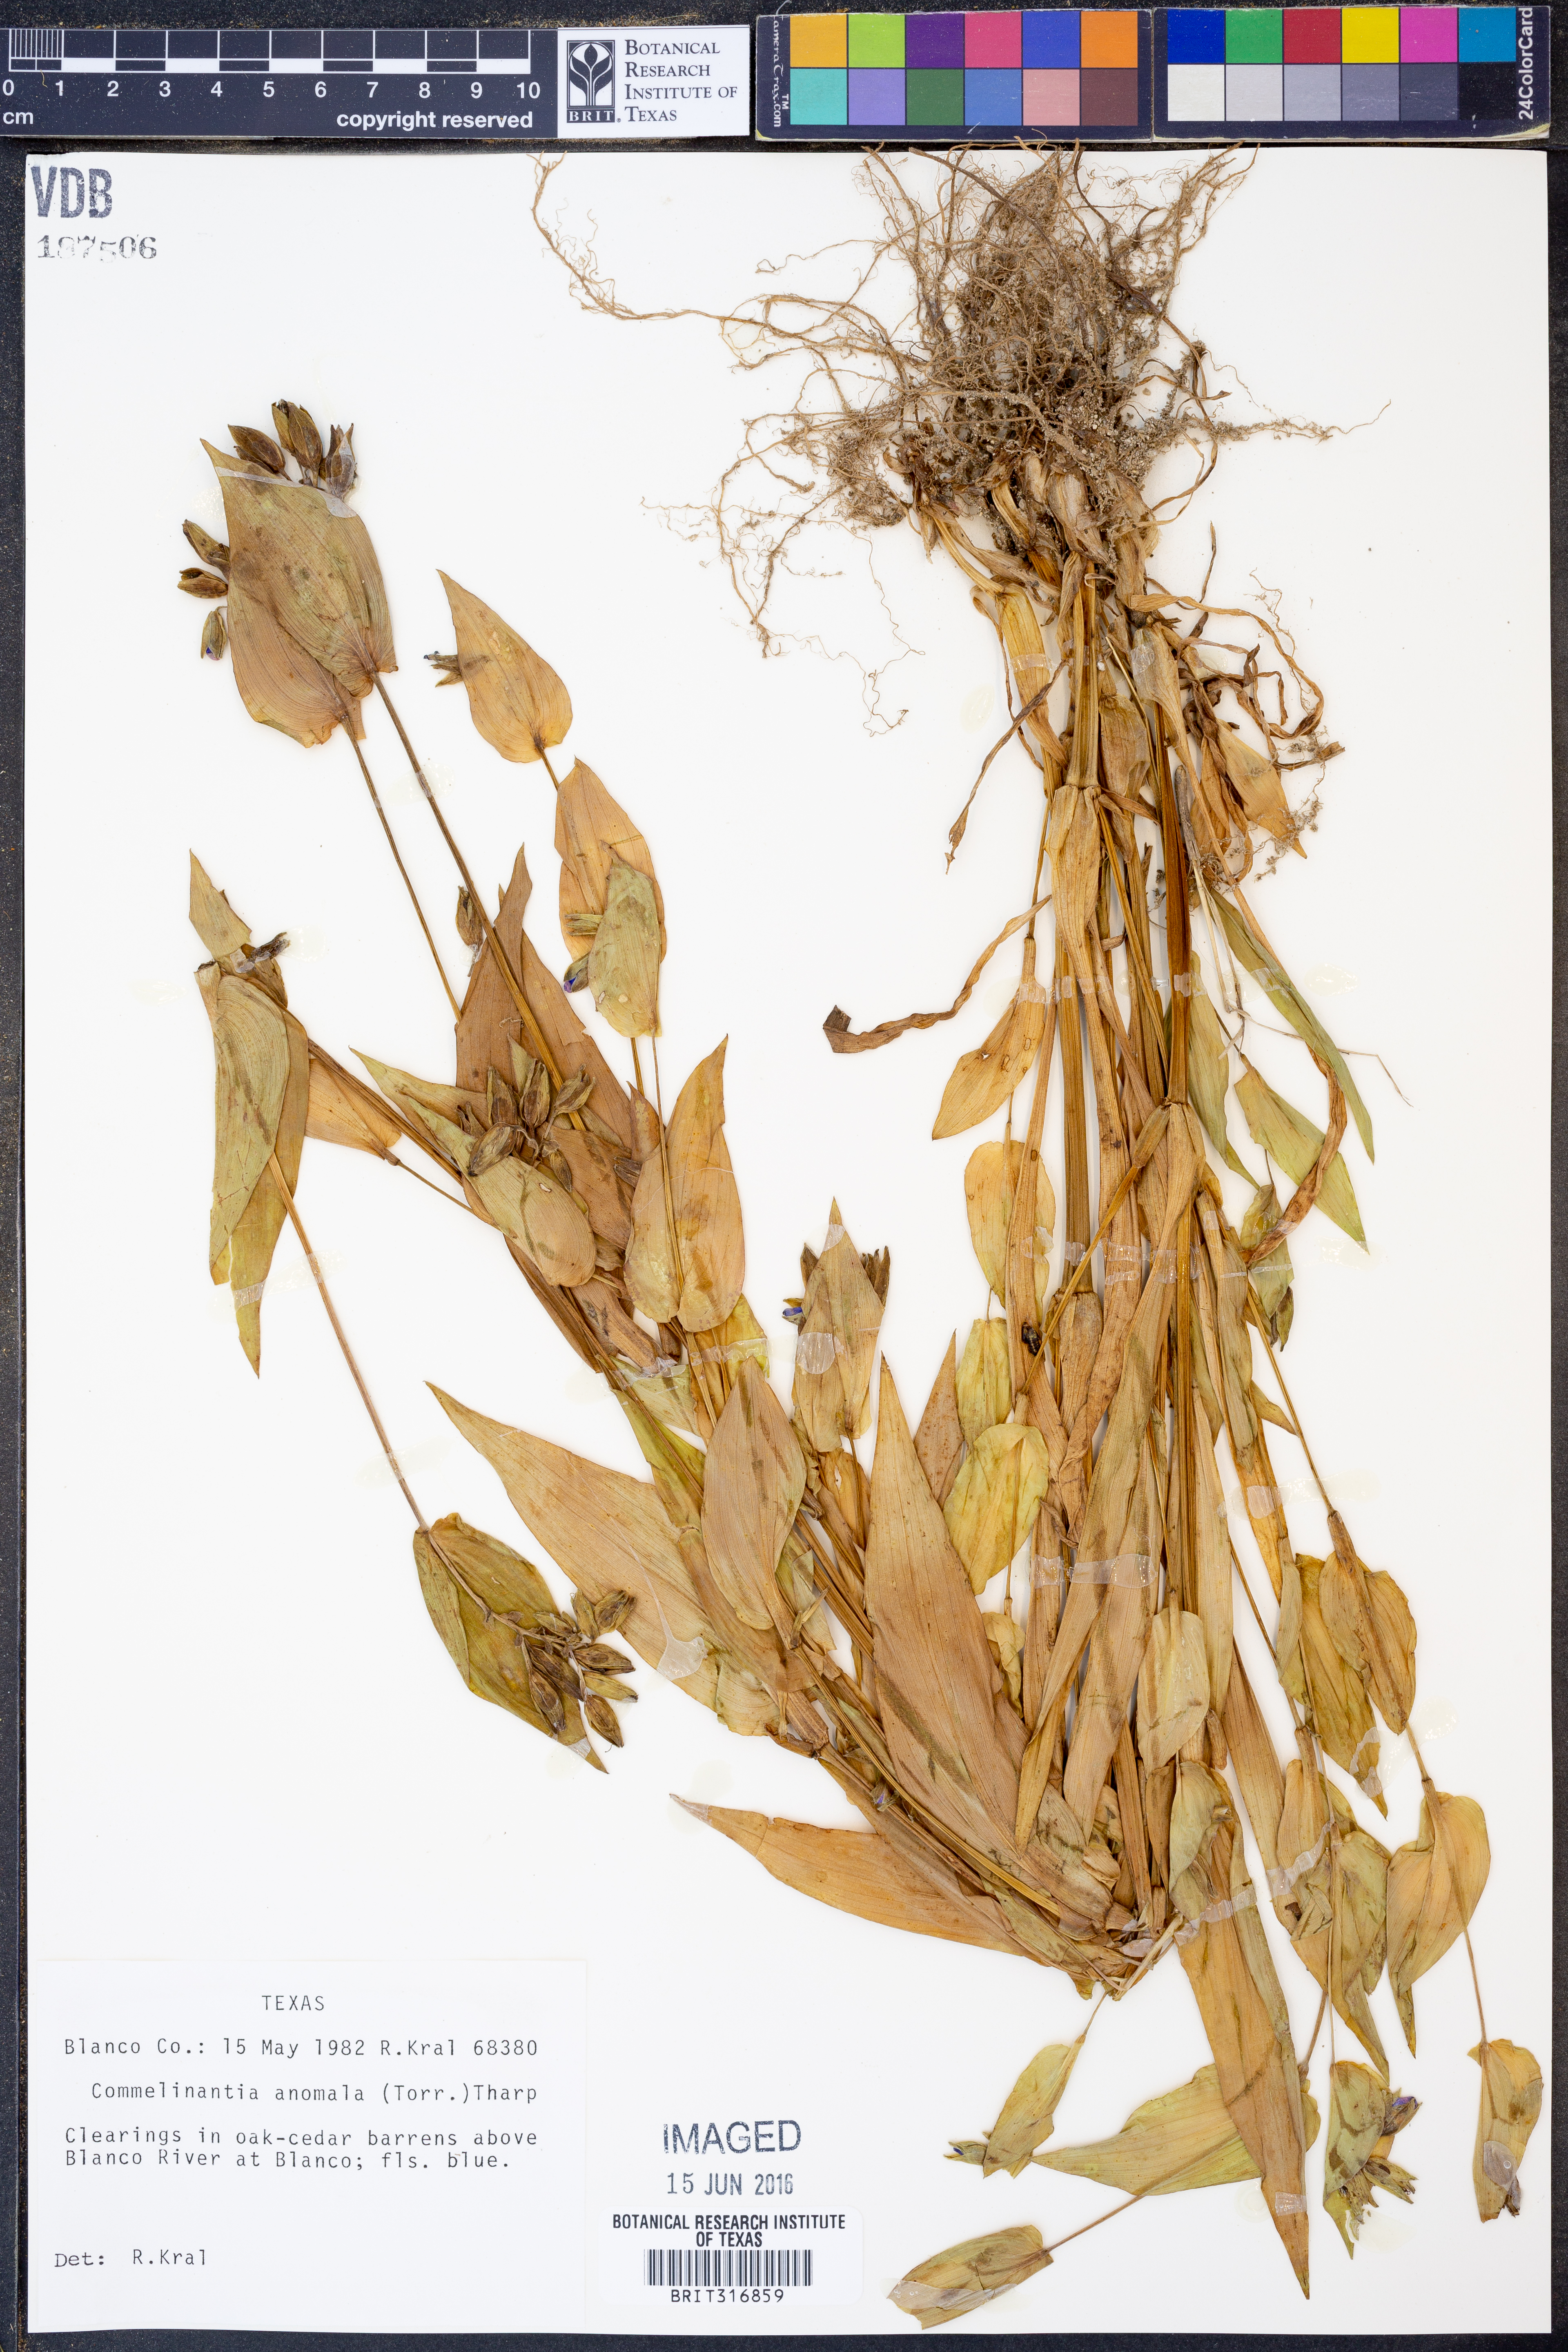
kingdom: Plantae
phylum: Tracheophyta
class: Liliopsida
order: Commelinales
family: Commelinaceae
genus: Tinantia
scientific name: Tinantia anomala
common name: False dayflower
